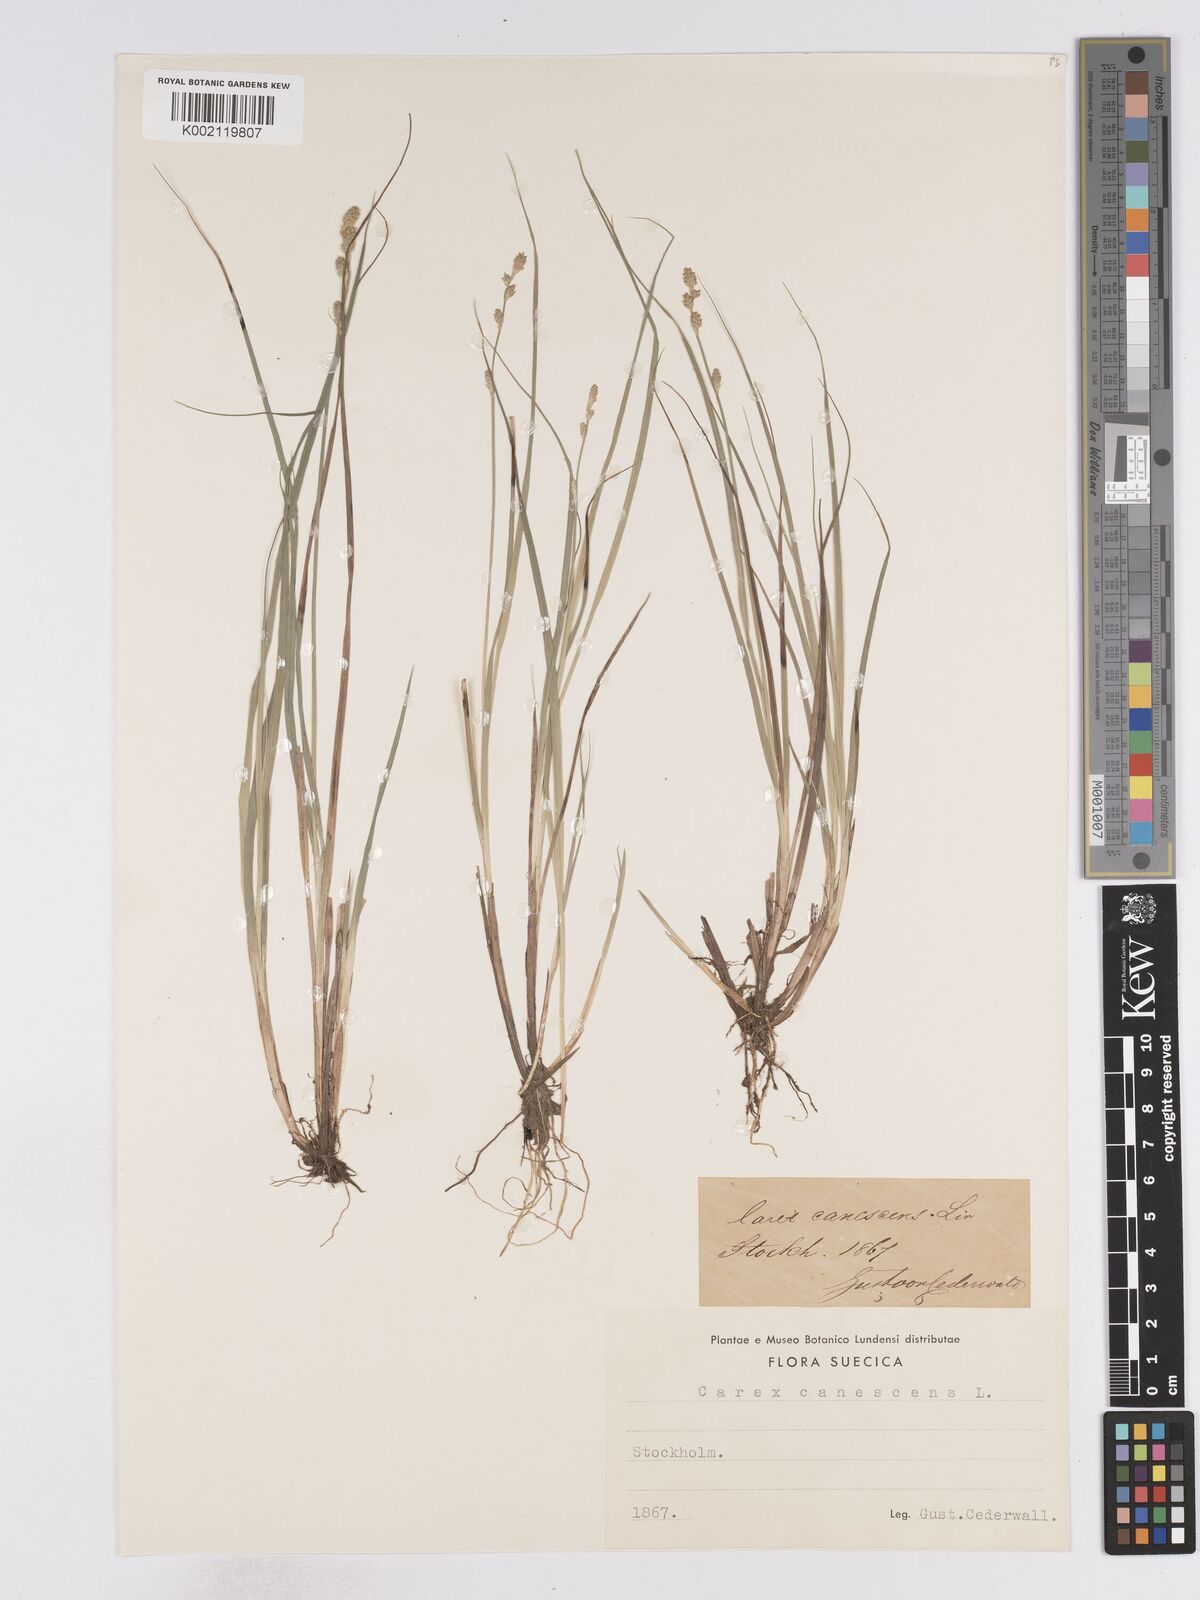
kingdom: Plantae
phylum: Tracheophyta
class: Liliopsida
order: Poales
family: Cyperaceae
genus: Carex
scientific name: Carex curta
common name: White sedge
